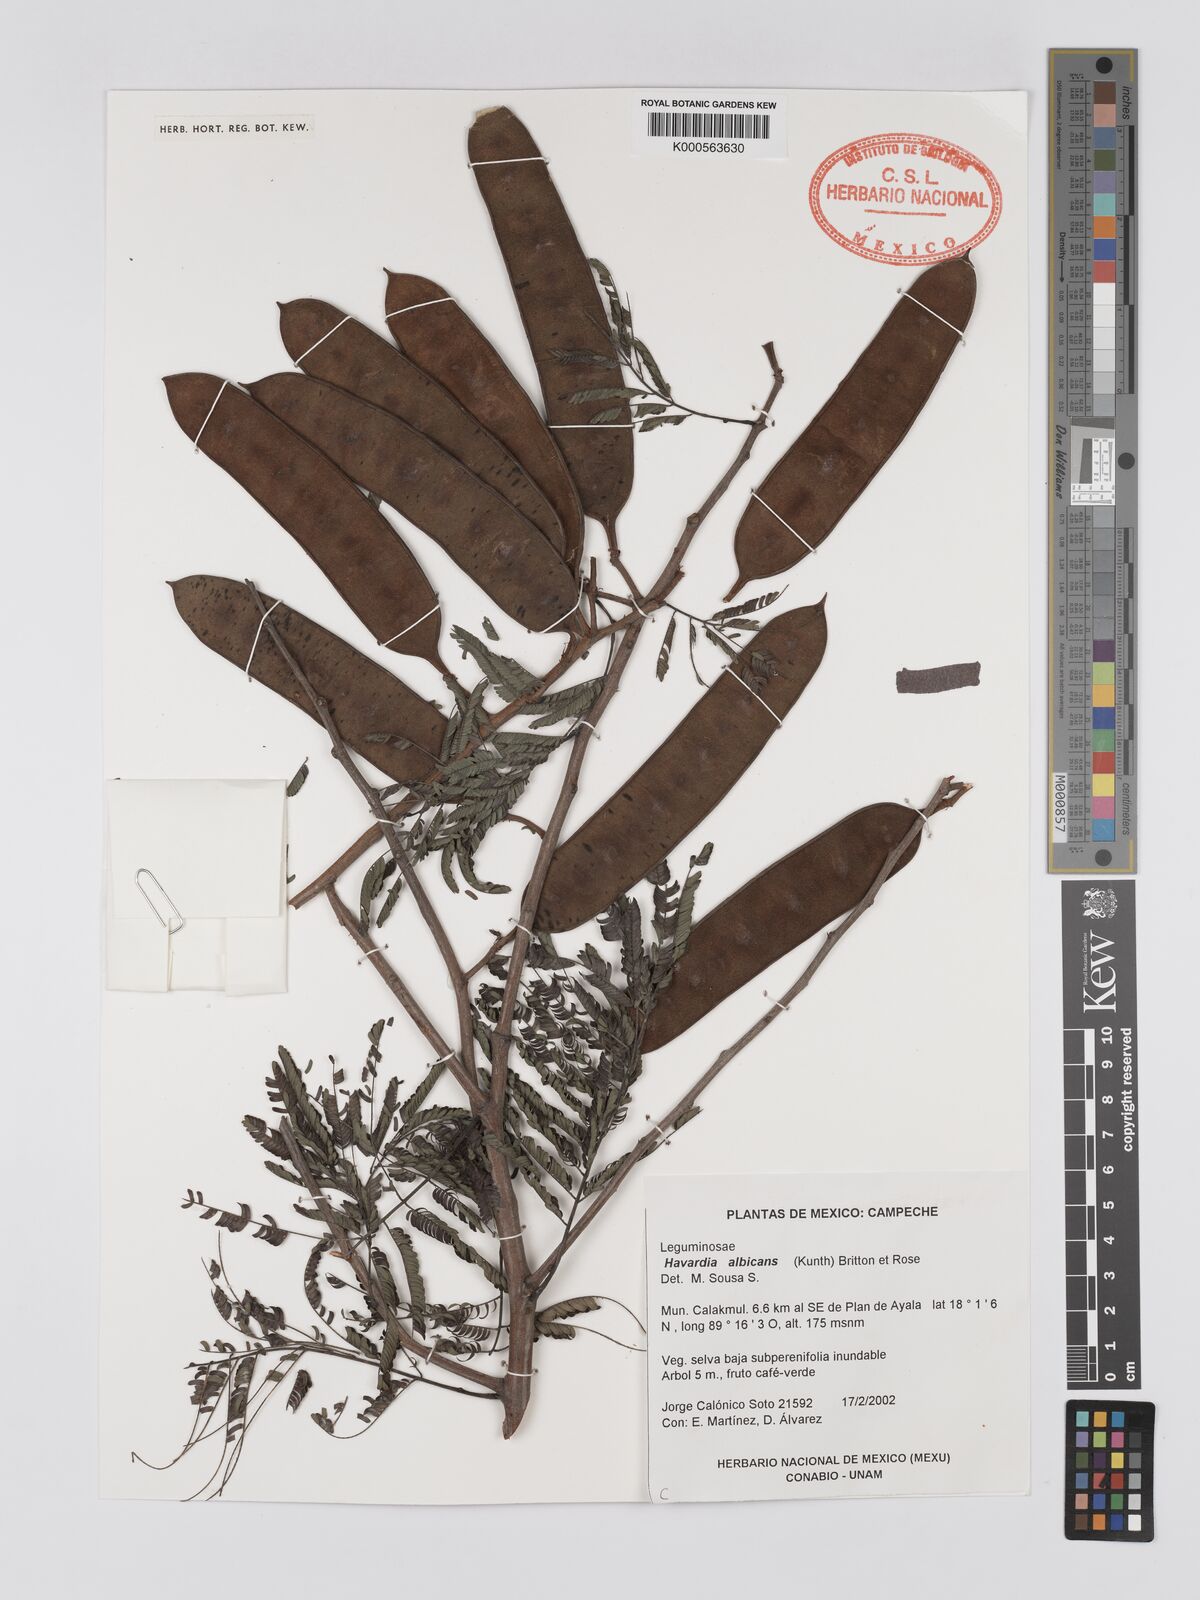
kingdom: Plantae
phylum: Tracheophyta
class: Magnoliopsida
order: Fabales
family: Fabaceae
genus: Havardia
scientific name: Havardia pallens
